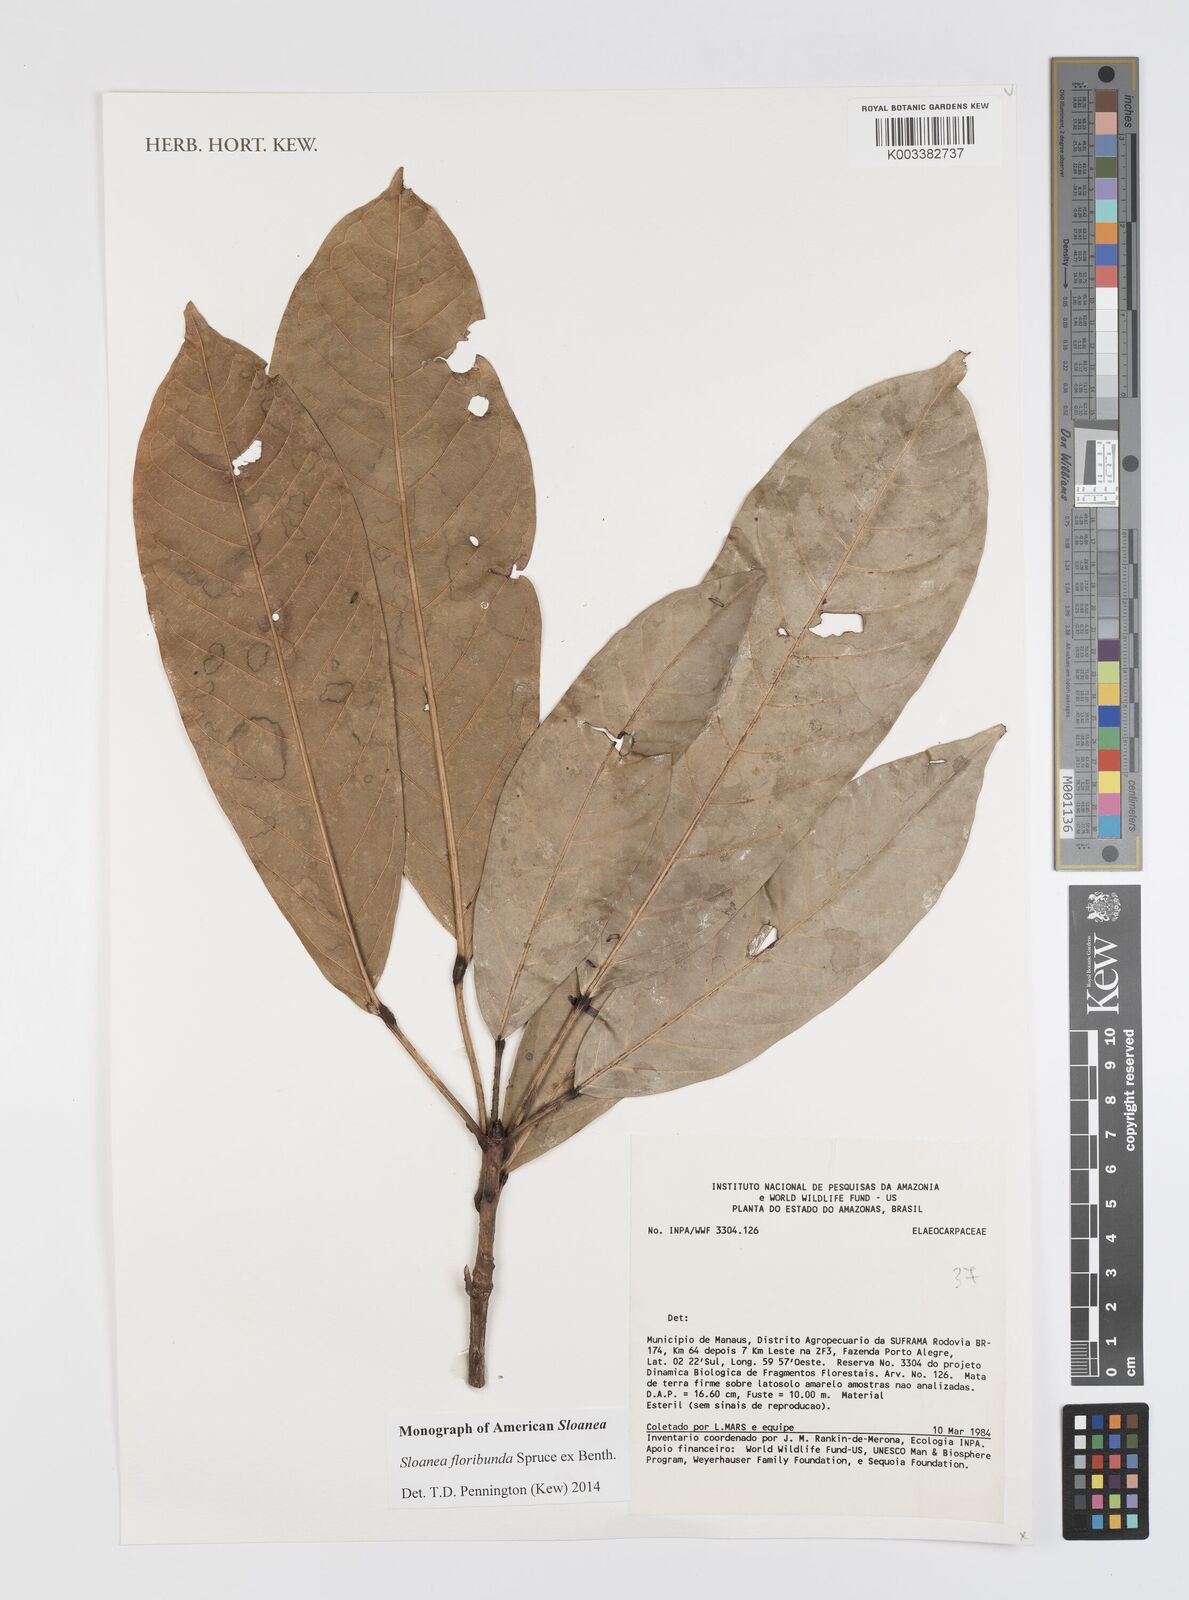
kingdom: Plantae
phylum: Tracheophyta
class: Magnoliopsida
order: Oxalidales
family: Elaeocarpaceae
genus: Sloanea
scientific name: Sloanea floribunda
